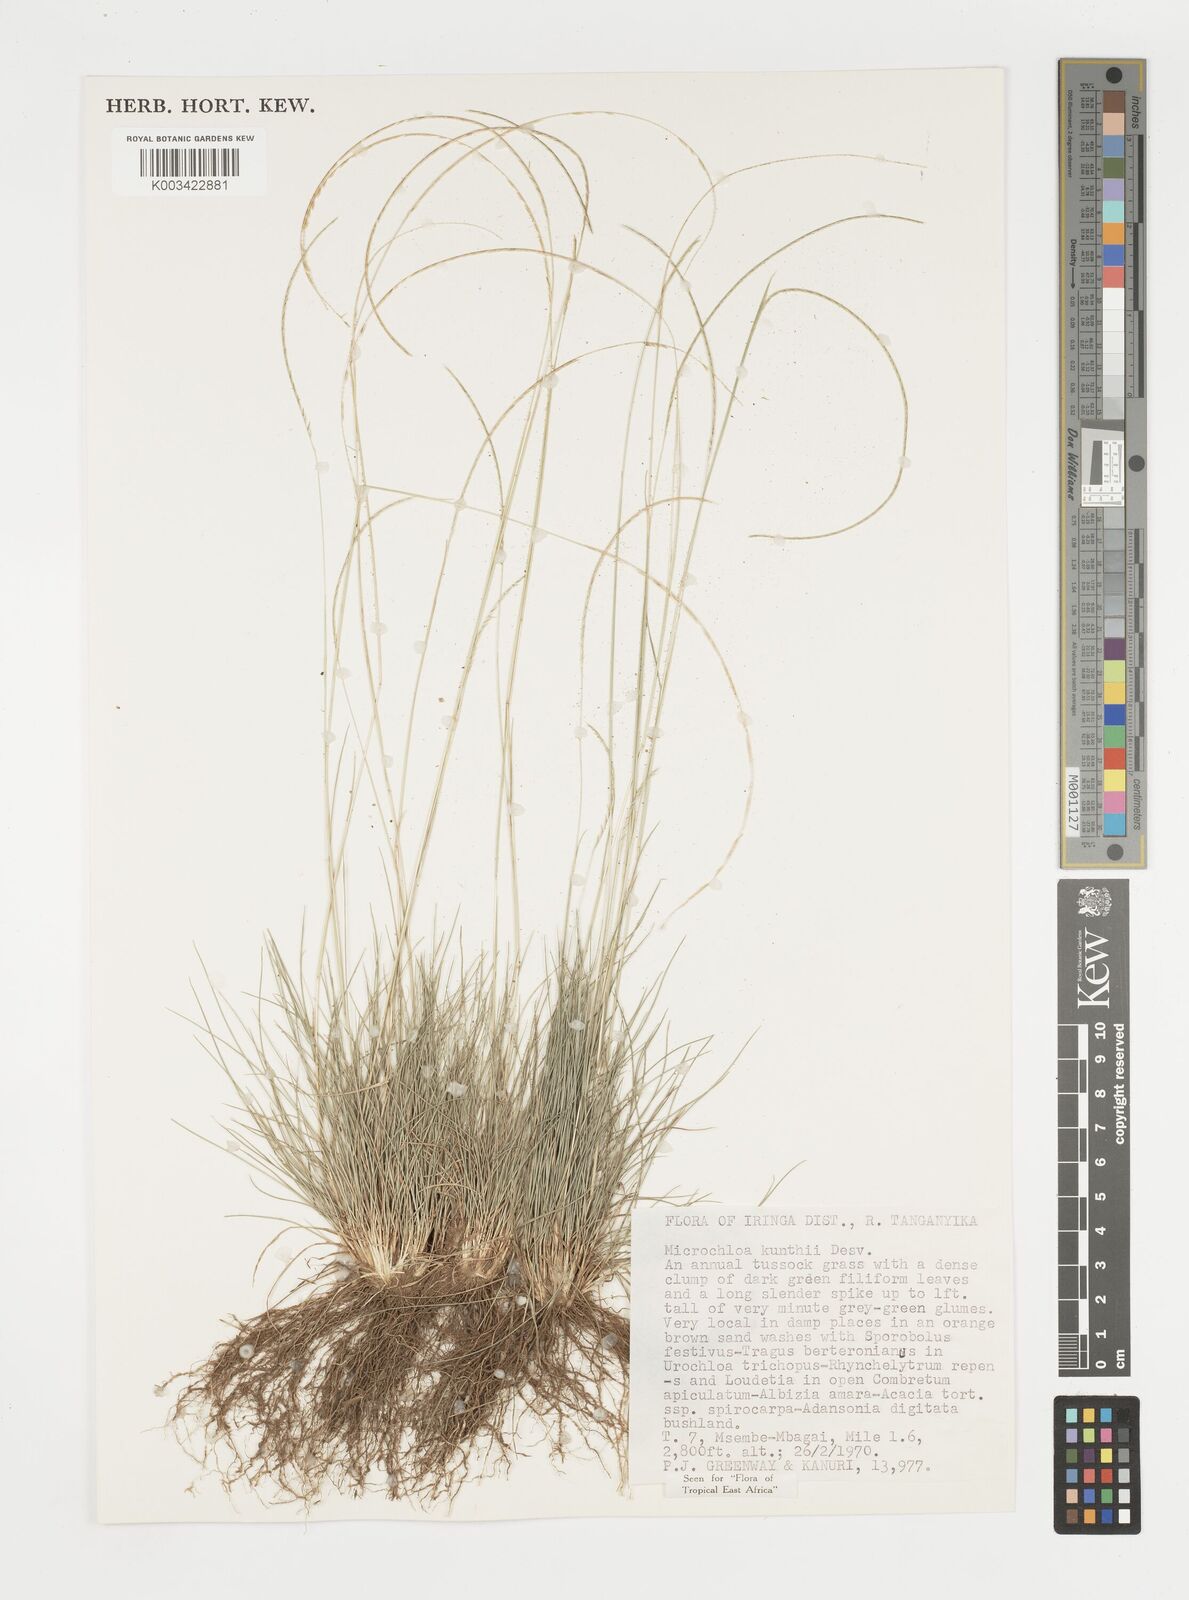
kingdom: Plantae
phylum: Tracheophyta
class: Liliopsida
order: Poales
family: Poaceae
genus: Microchloa
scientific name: Microchloa kunthii
